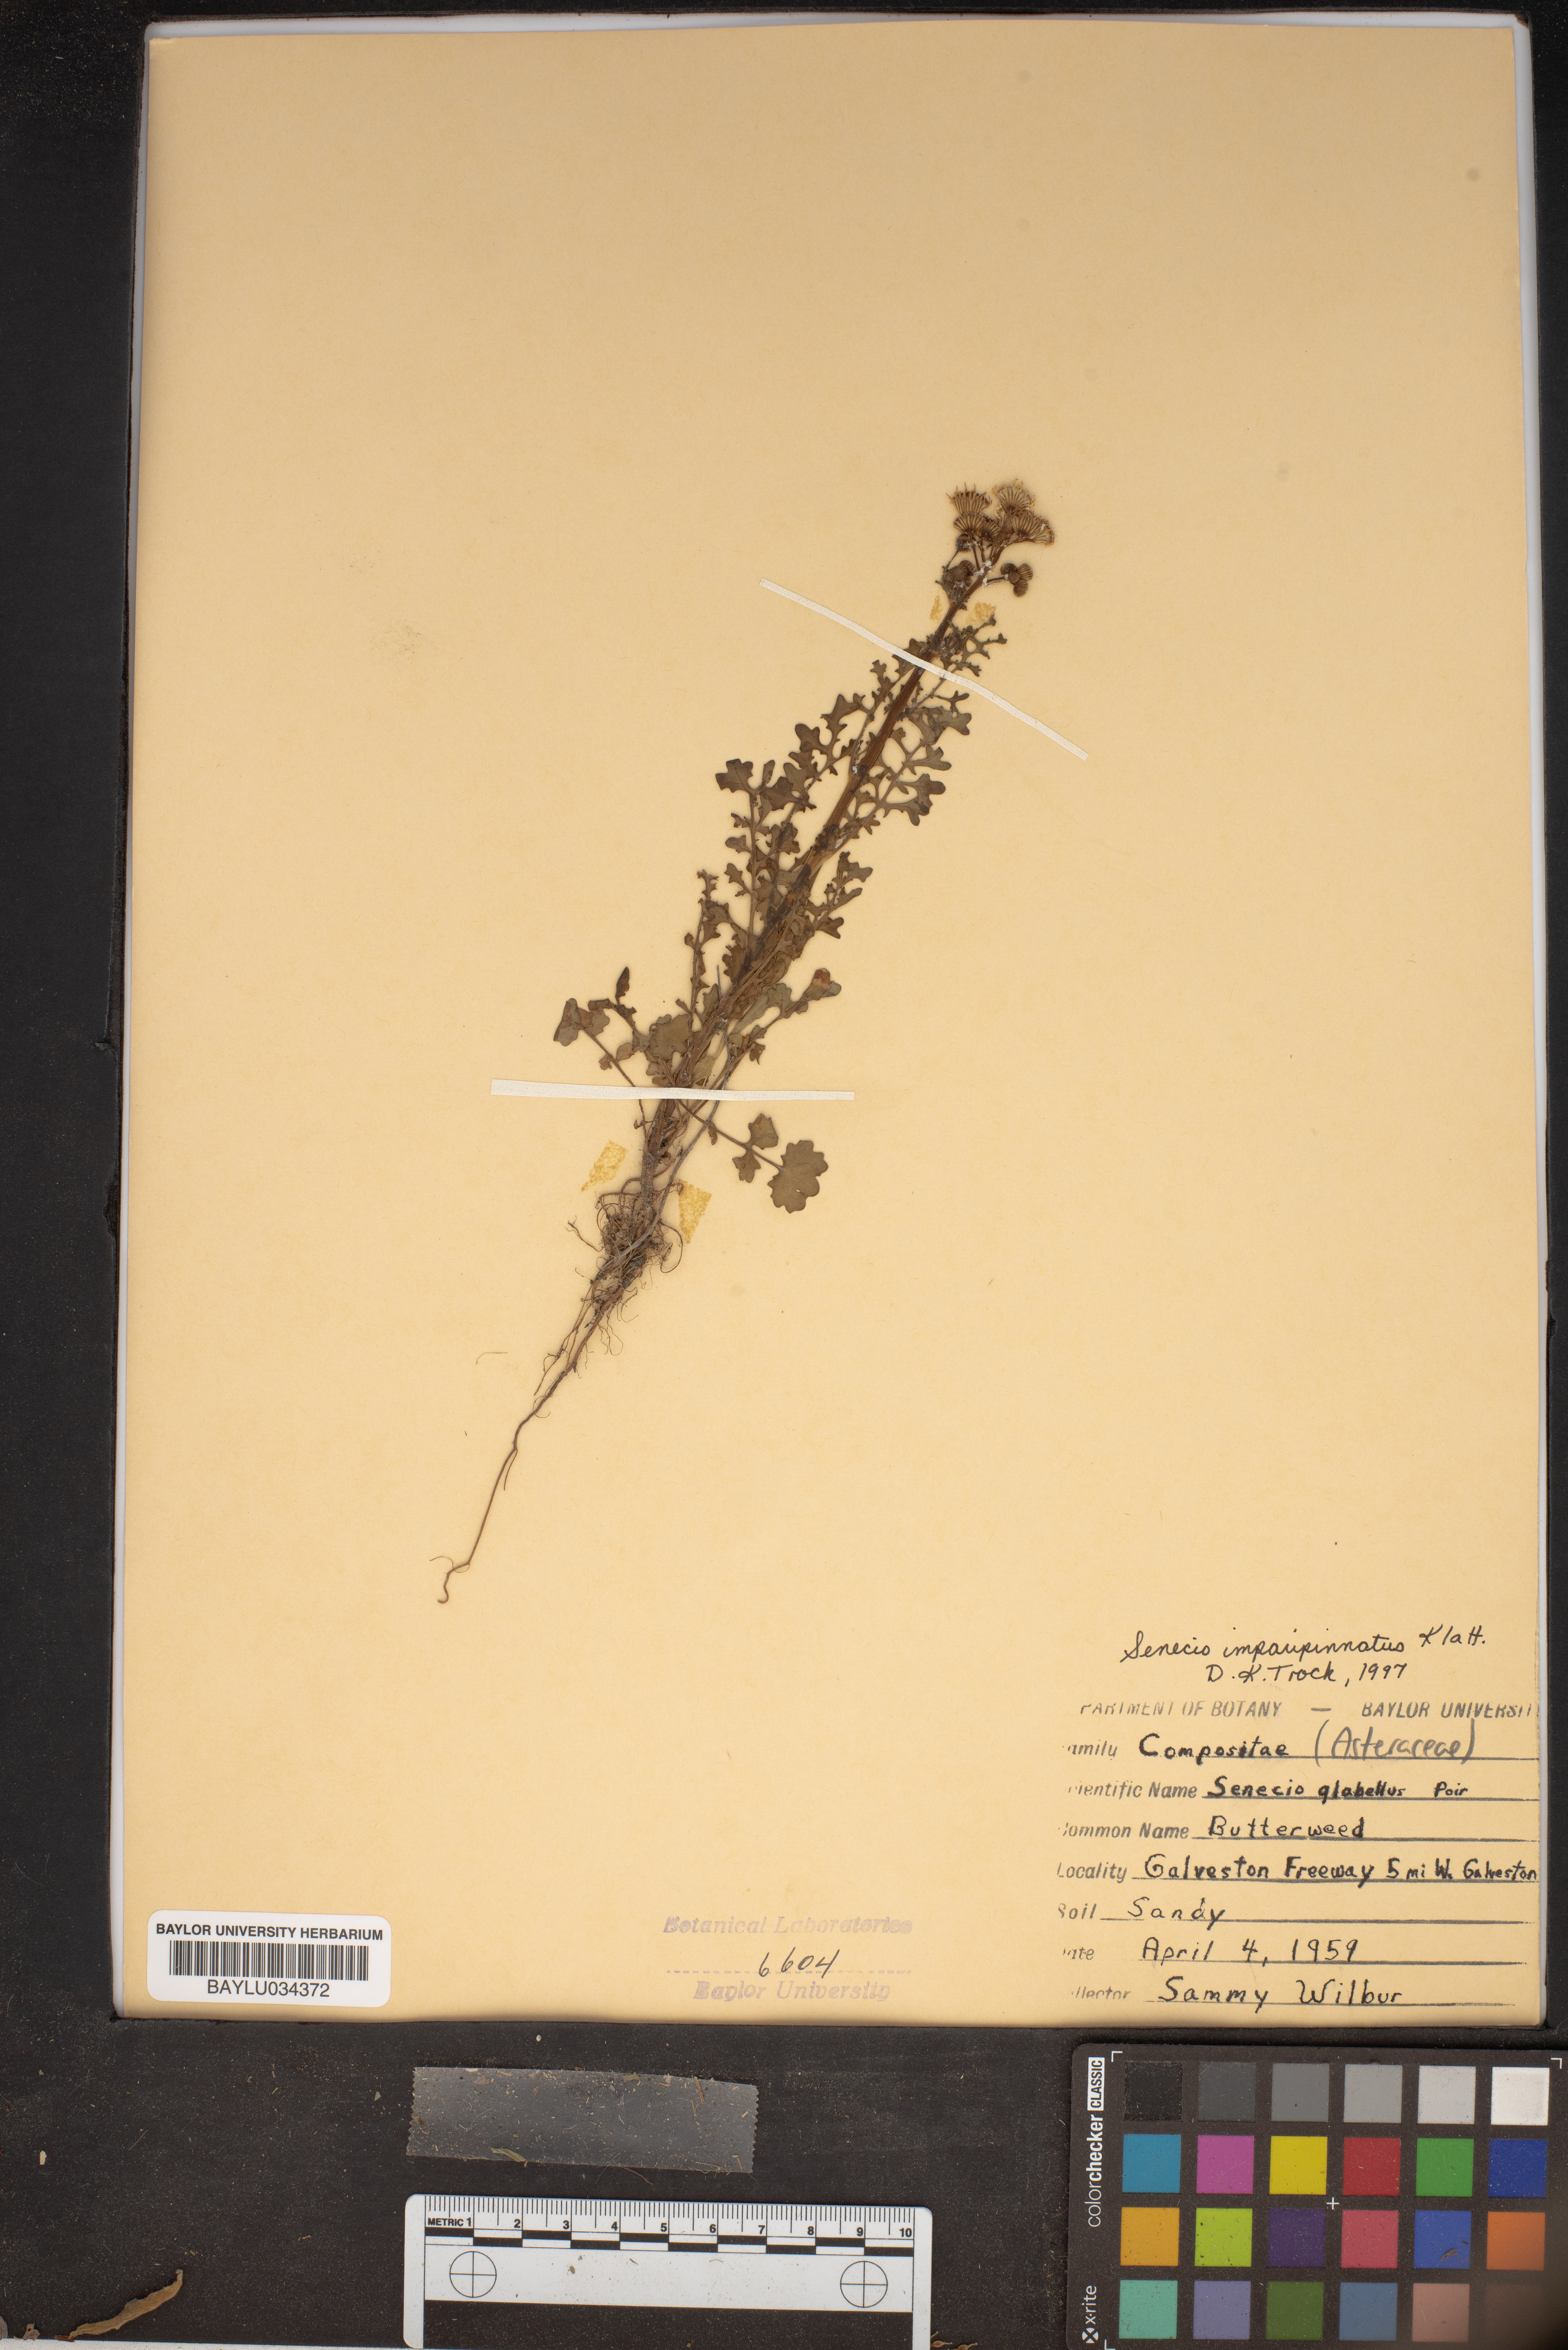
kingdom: Plantae
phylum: Tracheophyta
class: Magnoliopsida
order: Asterales
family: Asteraceae
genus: Tephroseris
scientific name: Tephroseris praticola
